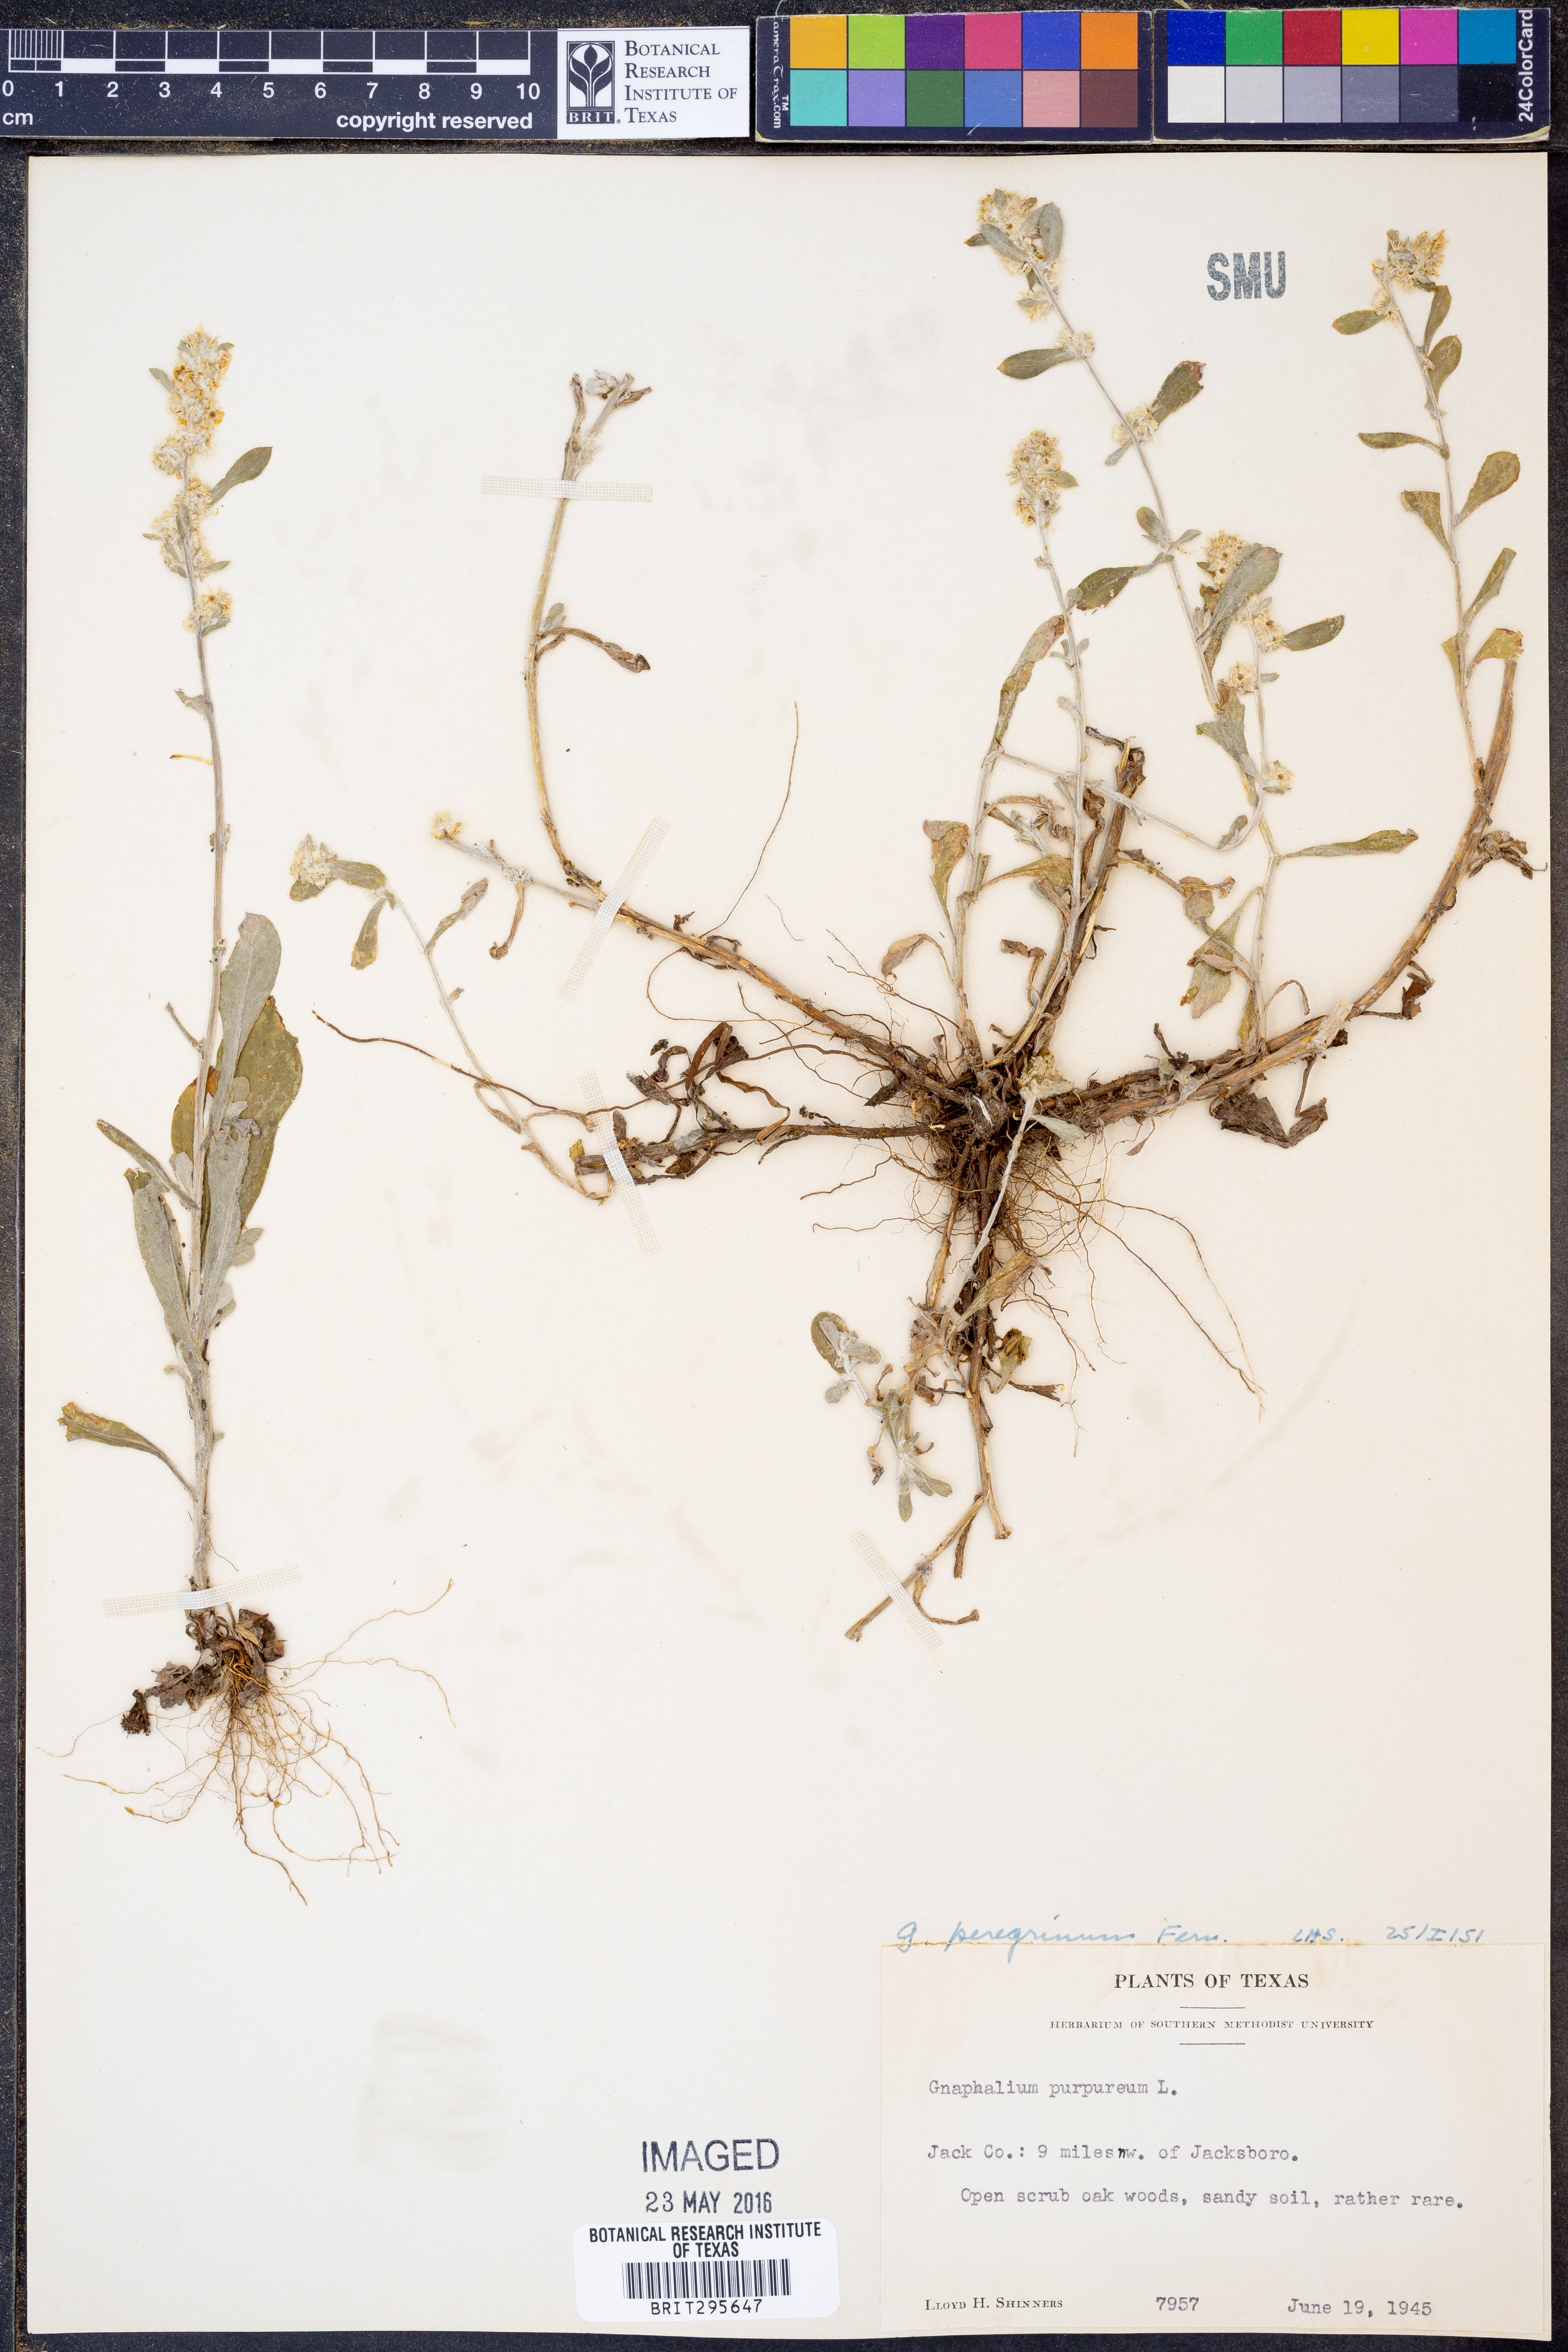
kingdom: Plantae
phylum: Tracheophyta
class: Magnoliopsida
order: Asterales
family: Asteraceae
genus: Gamochaeta
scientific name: Gamochaeta pensylvanica
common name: Pennsylvania everlasting
